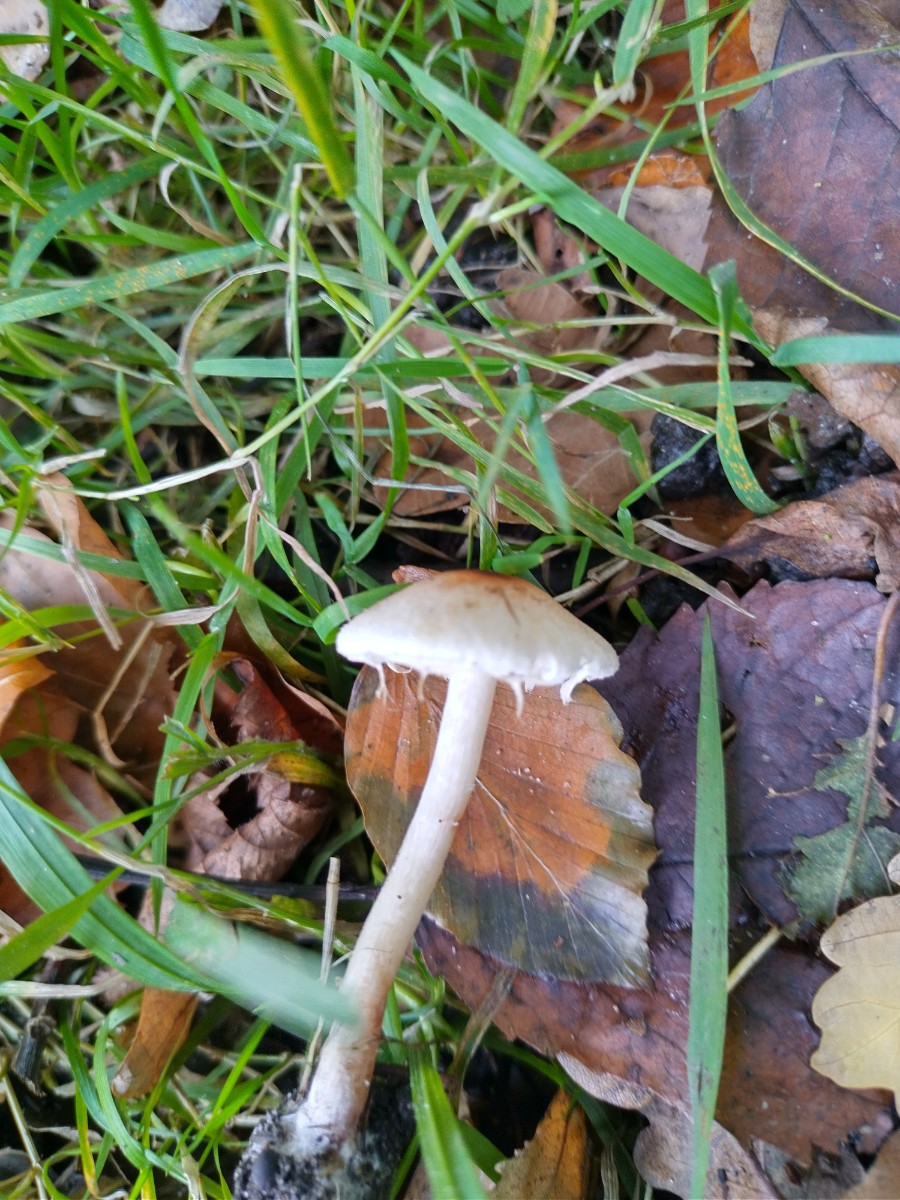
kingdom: Fungi
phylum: Basidiomycota
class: Agaricomycetes
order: Agaricales
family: Agaricaceae
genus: Lepiota
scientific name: Lepiota cristata
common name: stinkende parasolhat
